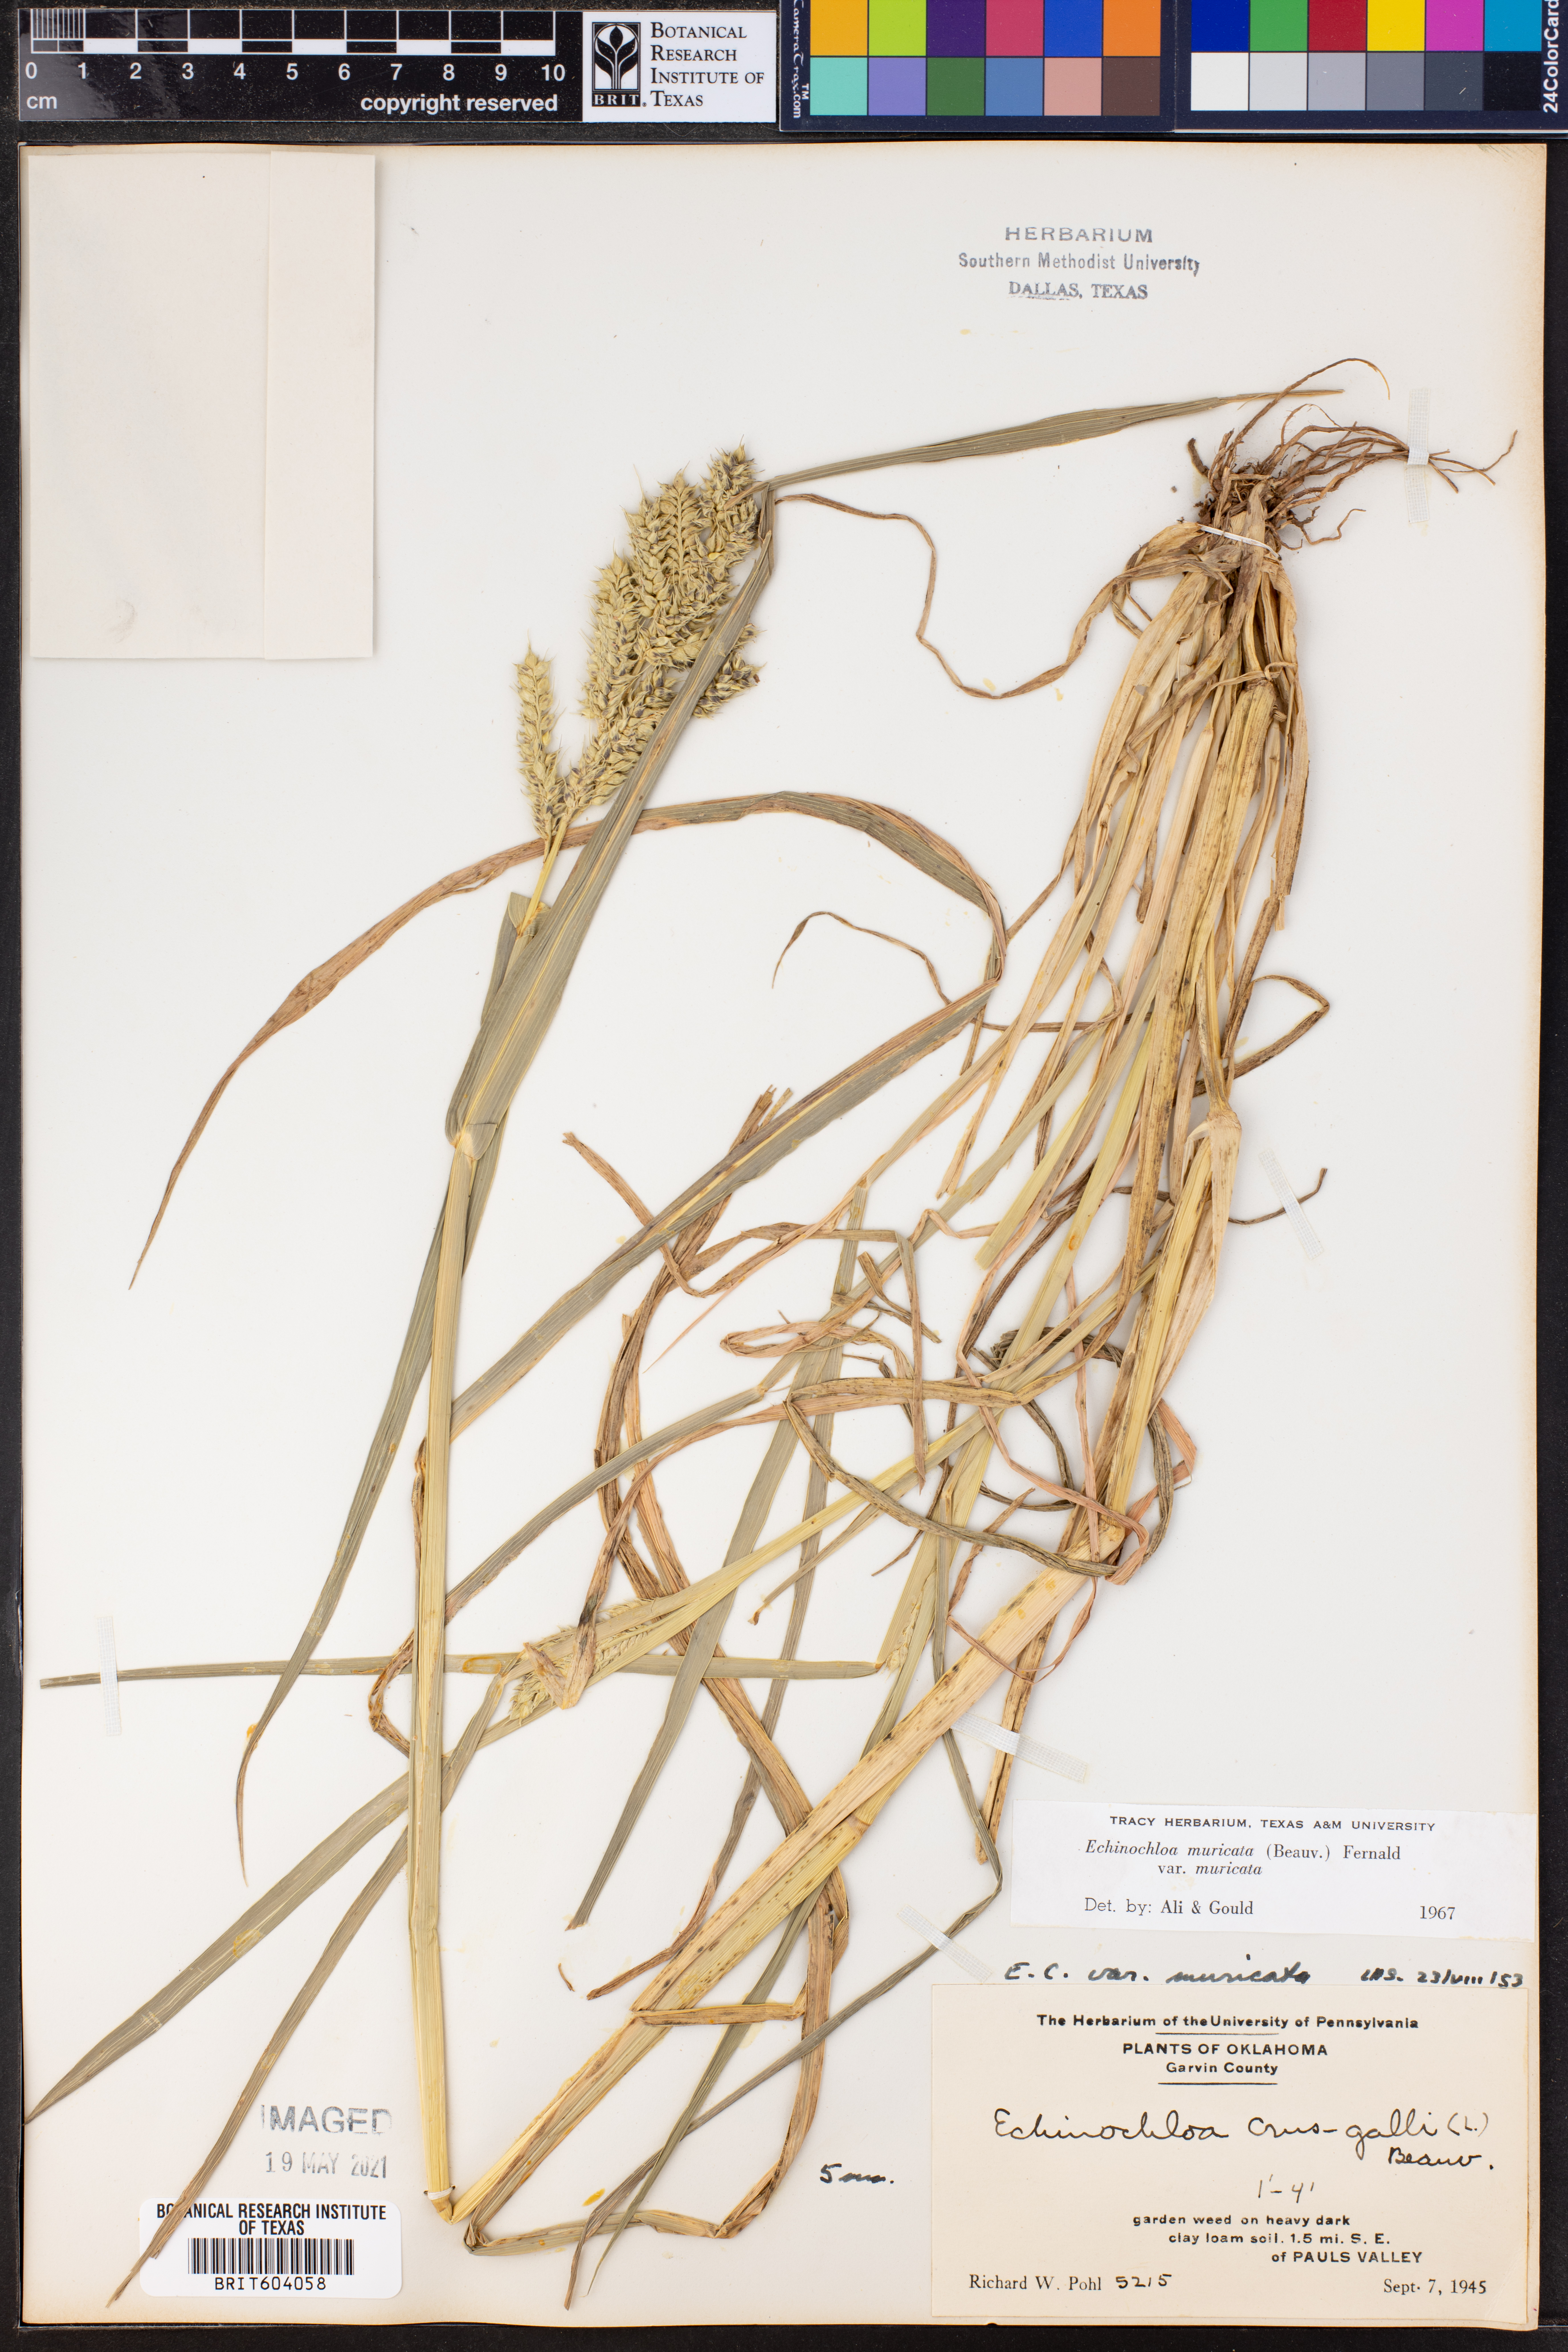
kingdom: Plantae
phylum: Tracheophyta
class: Liliopsida
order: Poales
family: Poaceae
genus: Echinochloa
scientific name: Echinochloa muricata
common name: American barnyard grass
